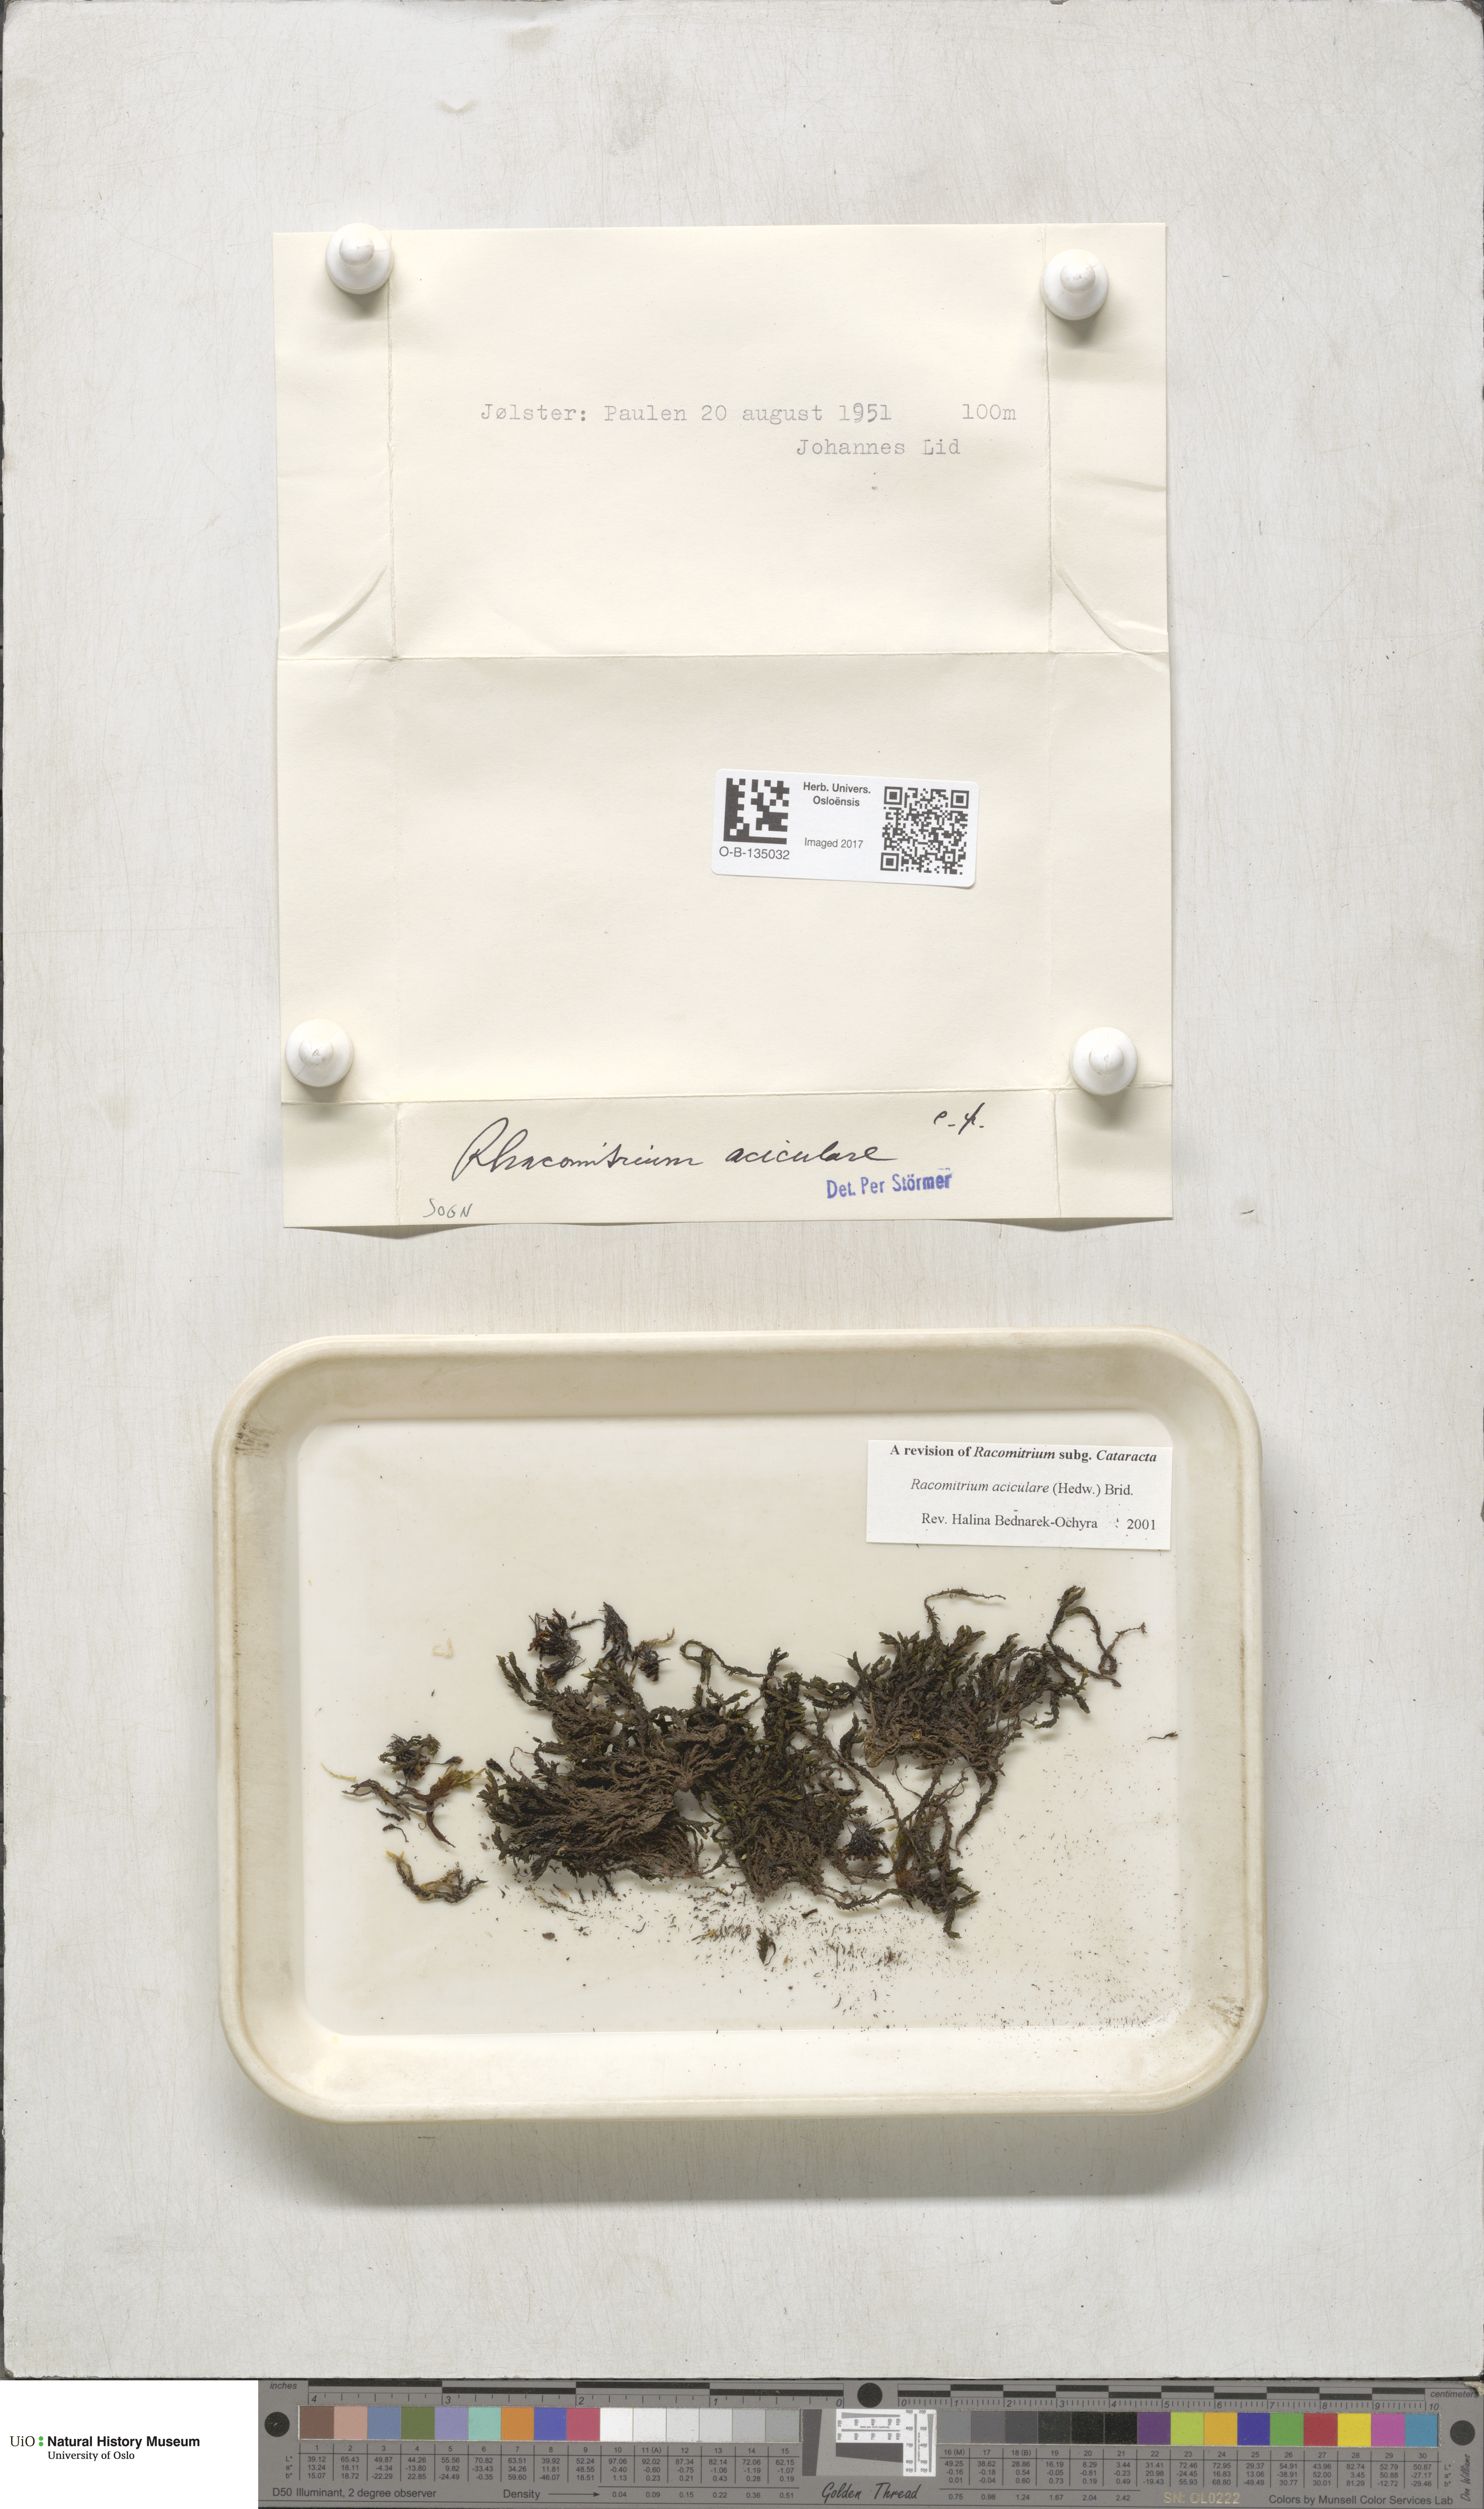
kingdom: Plantae
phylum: Bryophyta
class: Bryopsida
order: Grimmiales
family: Grimmiaceae
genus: Codriophorus
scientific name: Codriophorus acicularis
